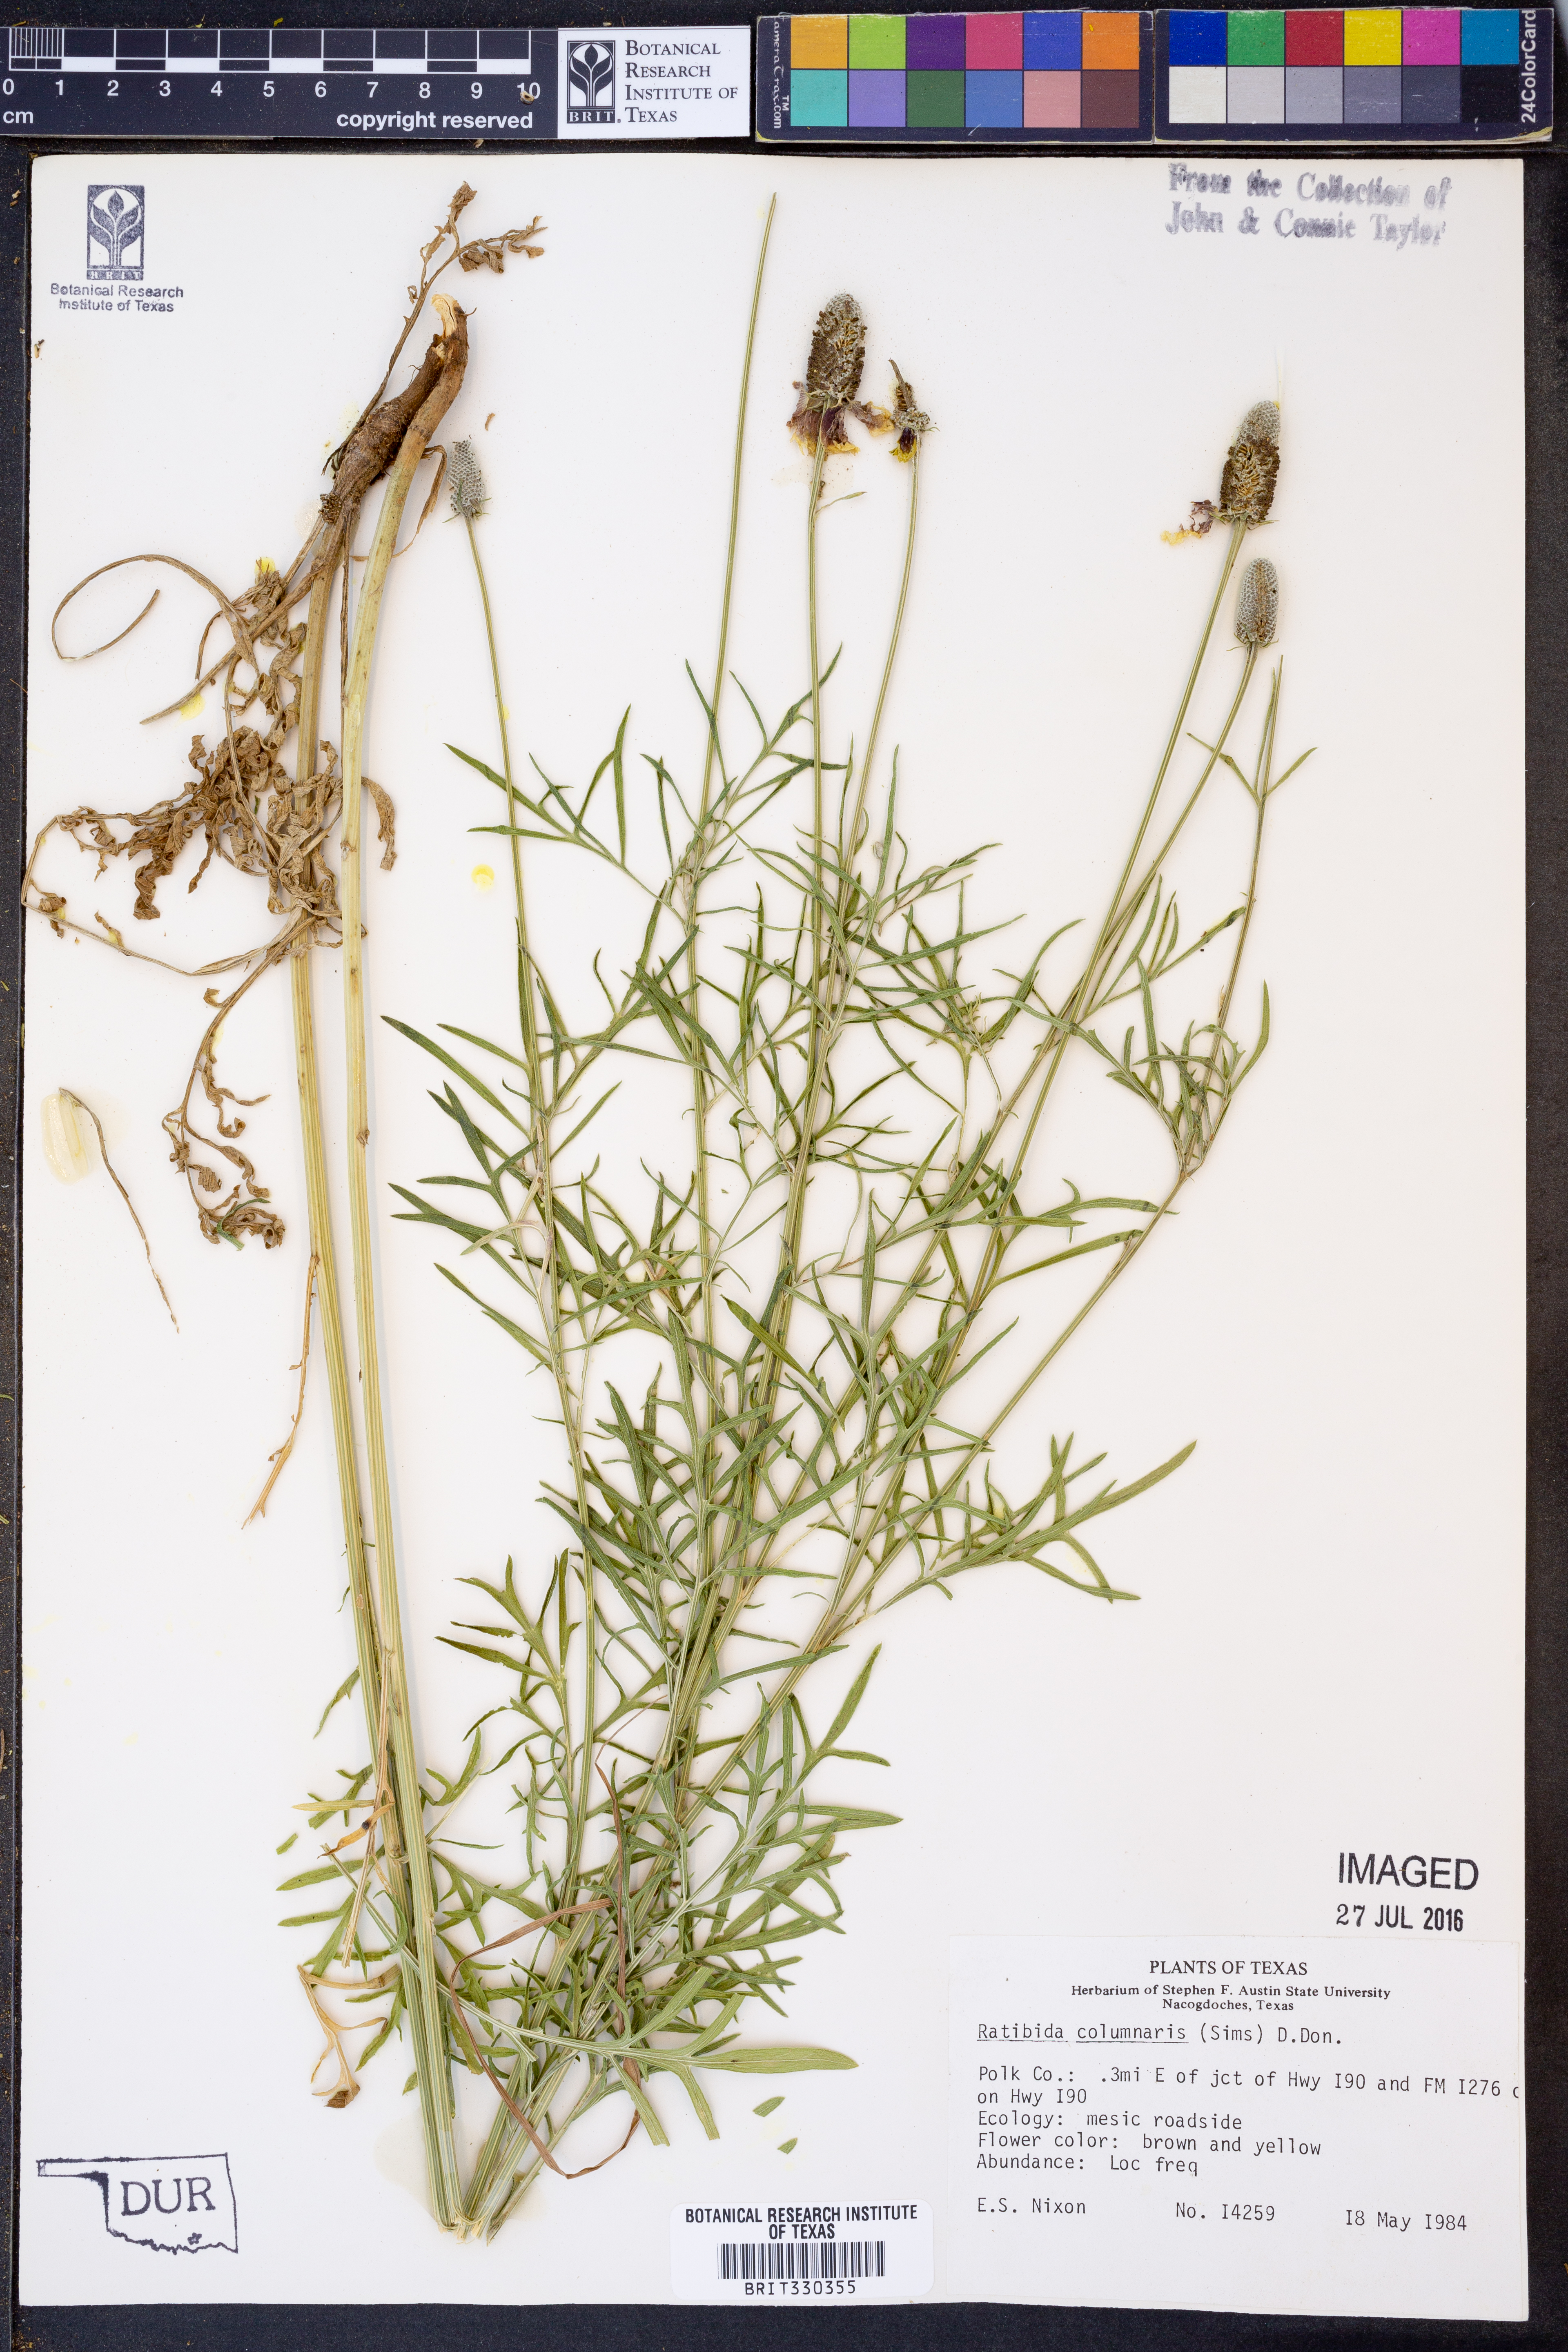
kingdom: Plantae
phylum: Tracheophyta
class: Magnoliopsida
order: Asterales
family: Asteraceae
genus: Ratibida
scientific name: Ratibida columnifera
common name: Prairie coneflower
